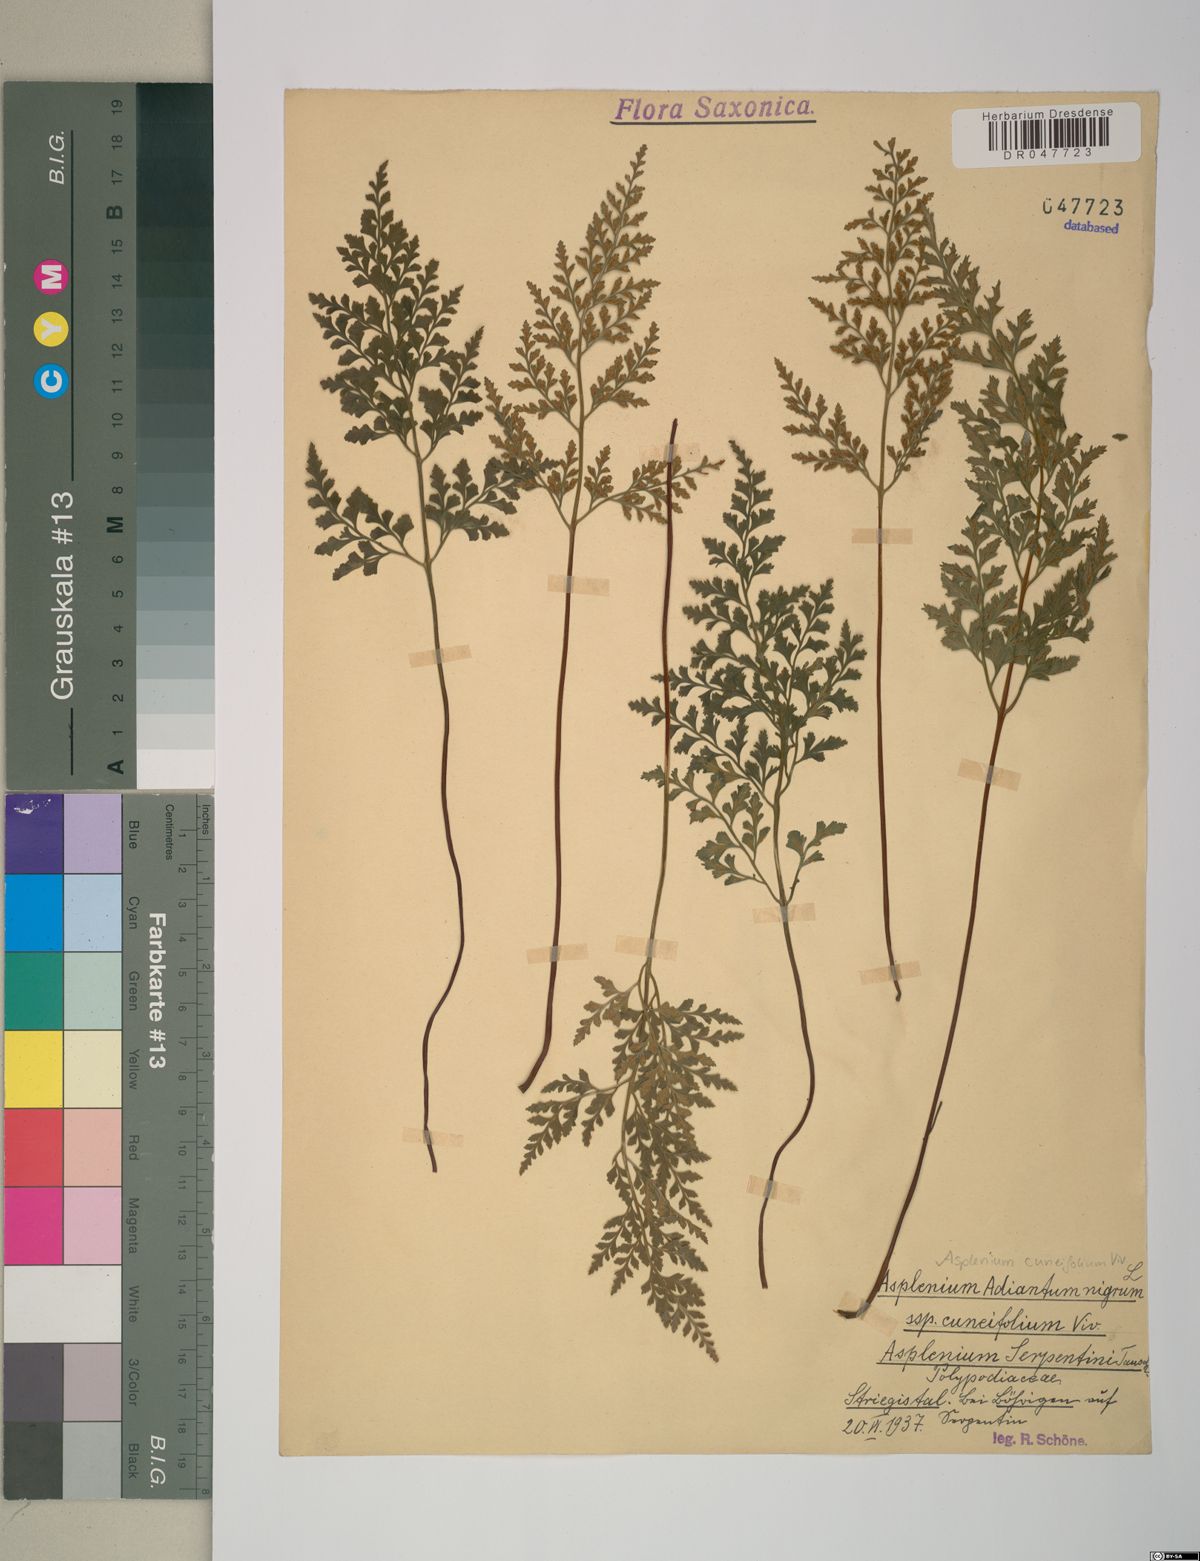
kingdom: Plantae
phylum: Tracheophyta
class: Polypodiopsida
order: Polypodiales
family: Aspleniaceae
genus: Asplenium
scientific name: Asplenium cuneifolium
